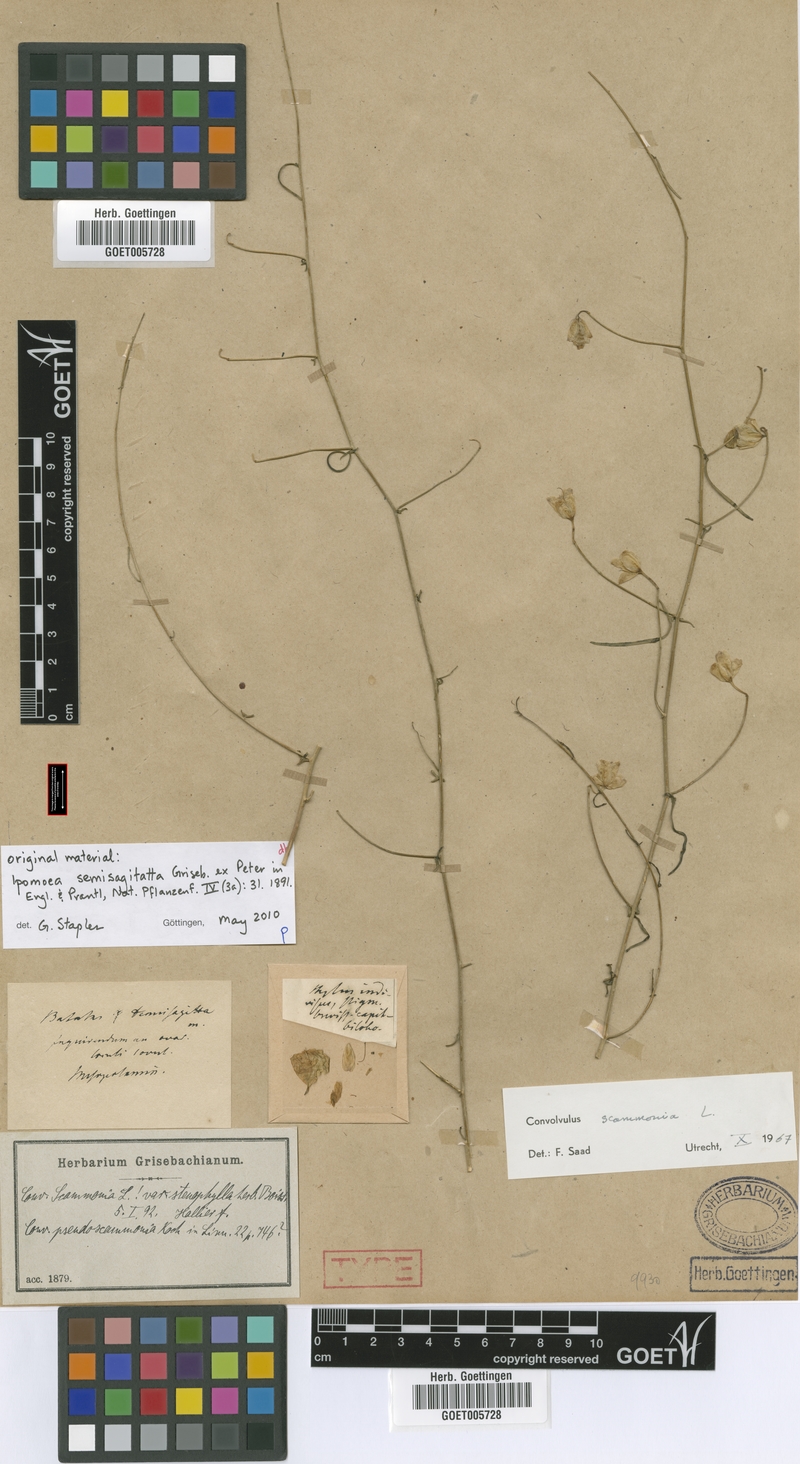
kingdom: Plantae
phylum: Tracheophyta
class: Magnoliopsida
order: Solanales
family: Convolvulaceae
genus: Convolvulus
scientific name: Convolvulus scammonia
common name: Scammony
